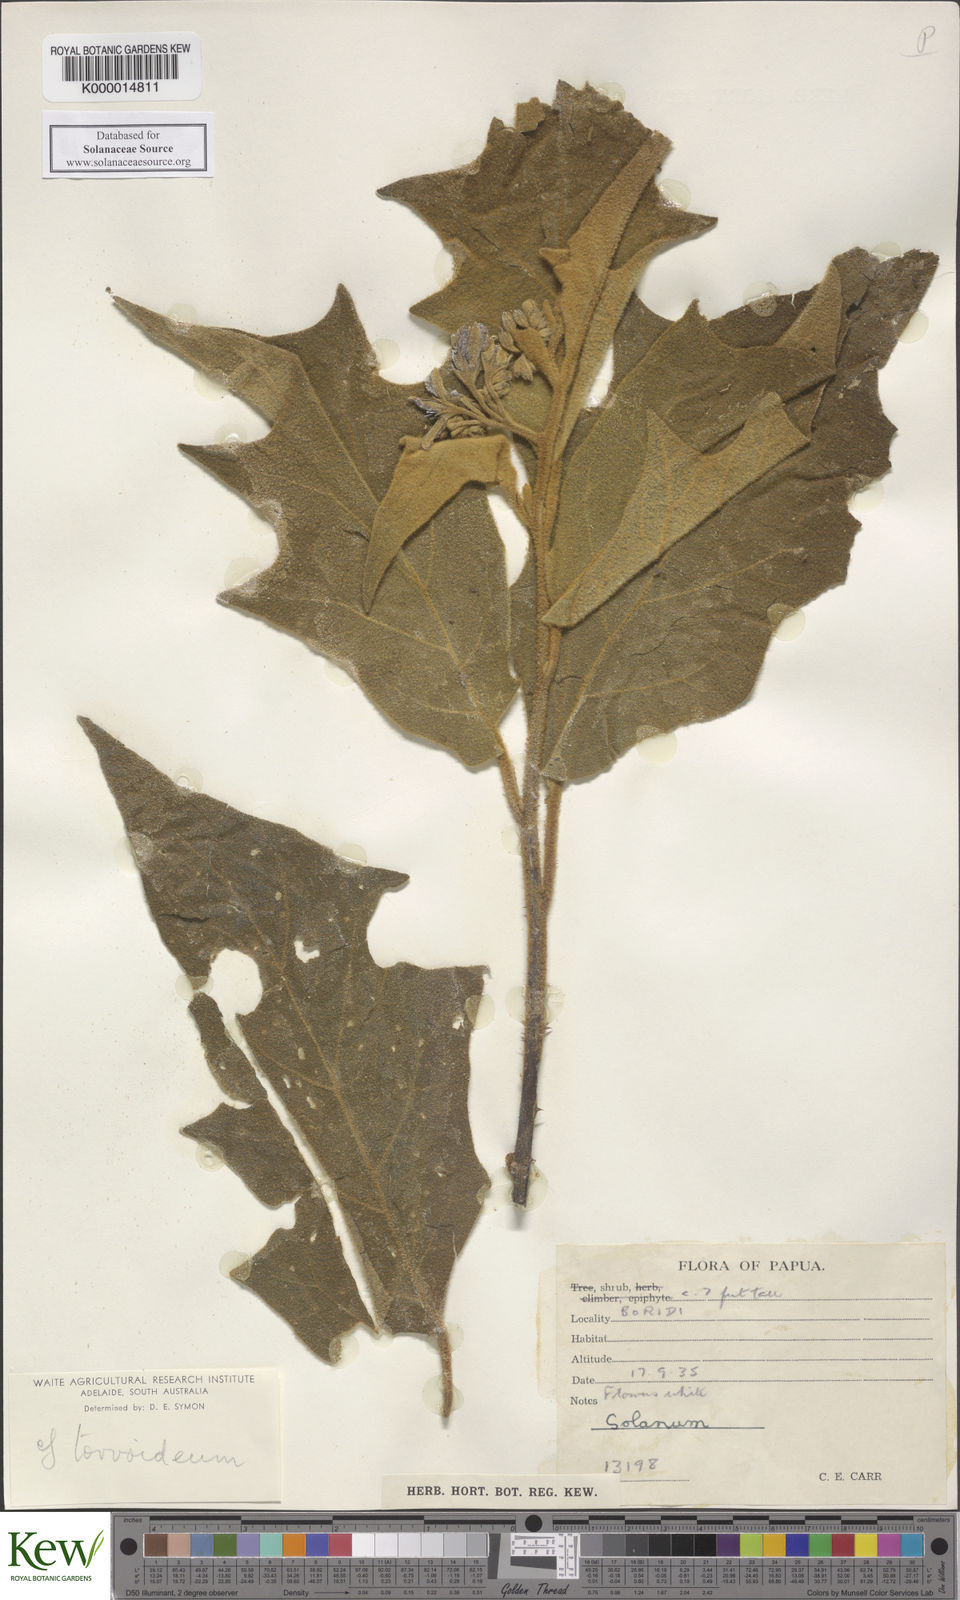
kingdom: Plantae
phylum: Tracheophyta
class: Magnoliopsida
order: Solanales
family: Solanaceae
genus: Solanum
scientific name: Solanum torvoideum
